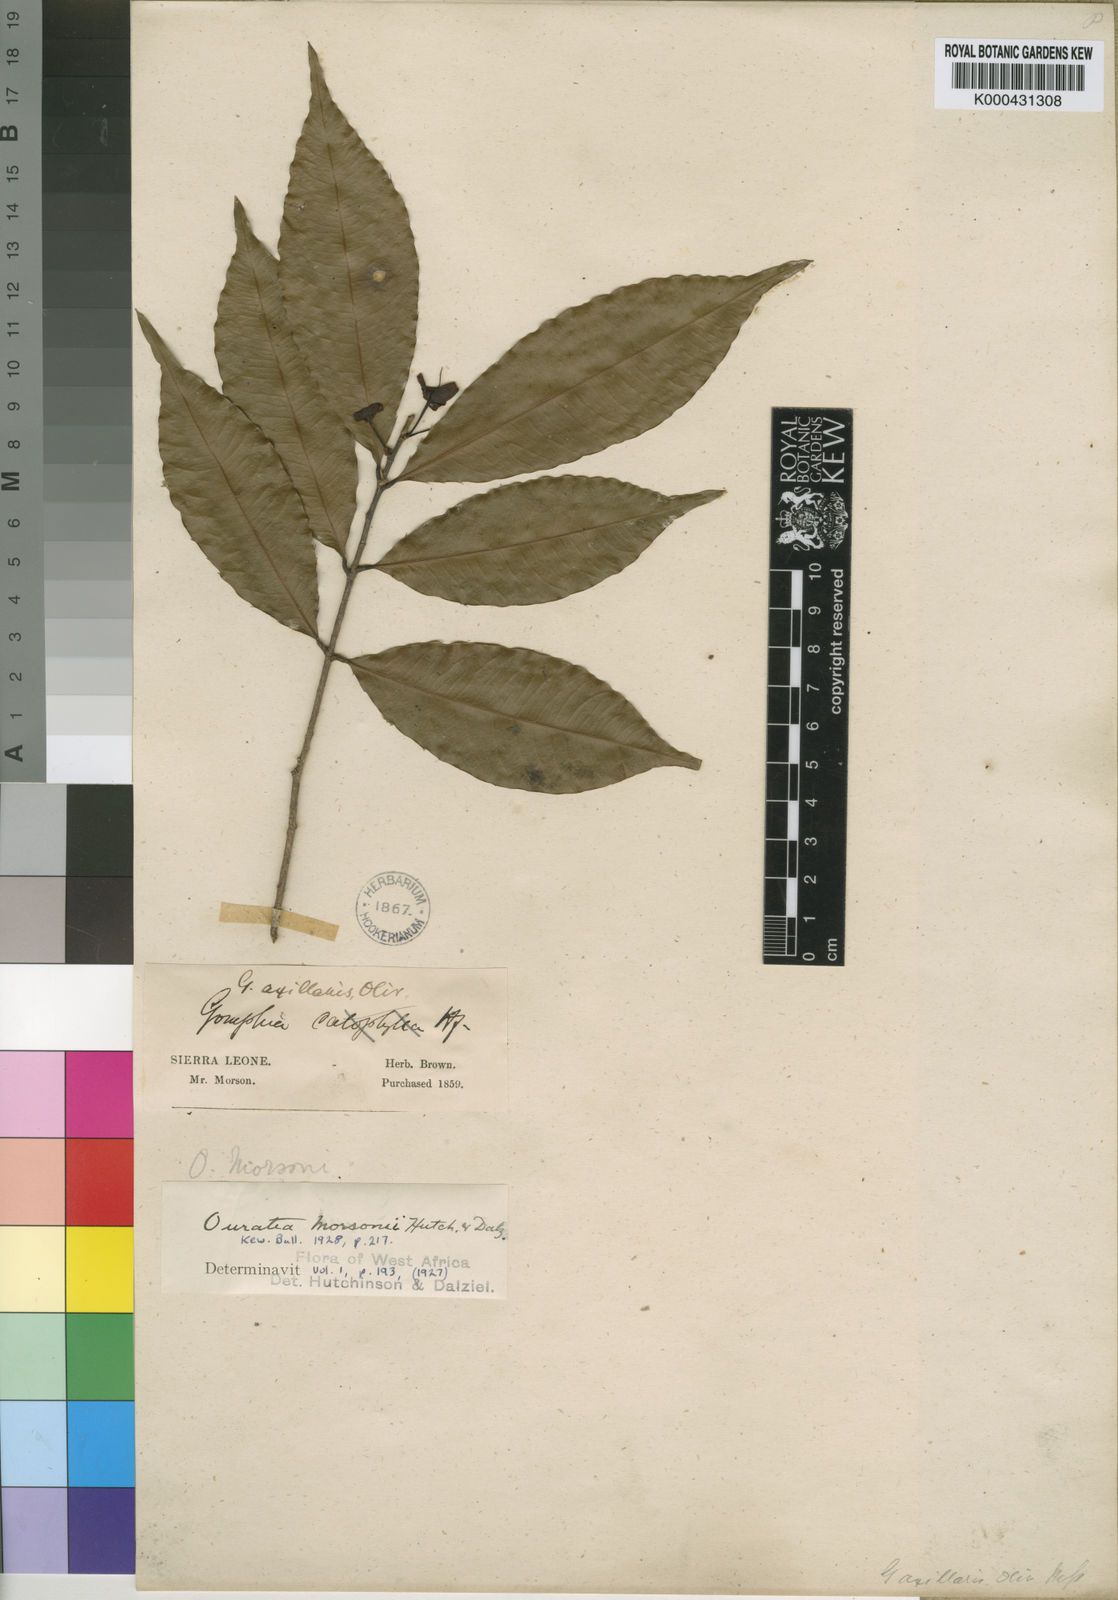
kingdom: Plantae
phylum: Tracheophyta
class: Magnoliopsida
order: Malpighiales
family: Ochnaceae
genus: Idertia
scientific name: Idertia axillaris
